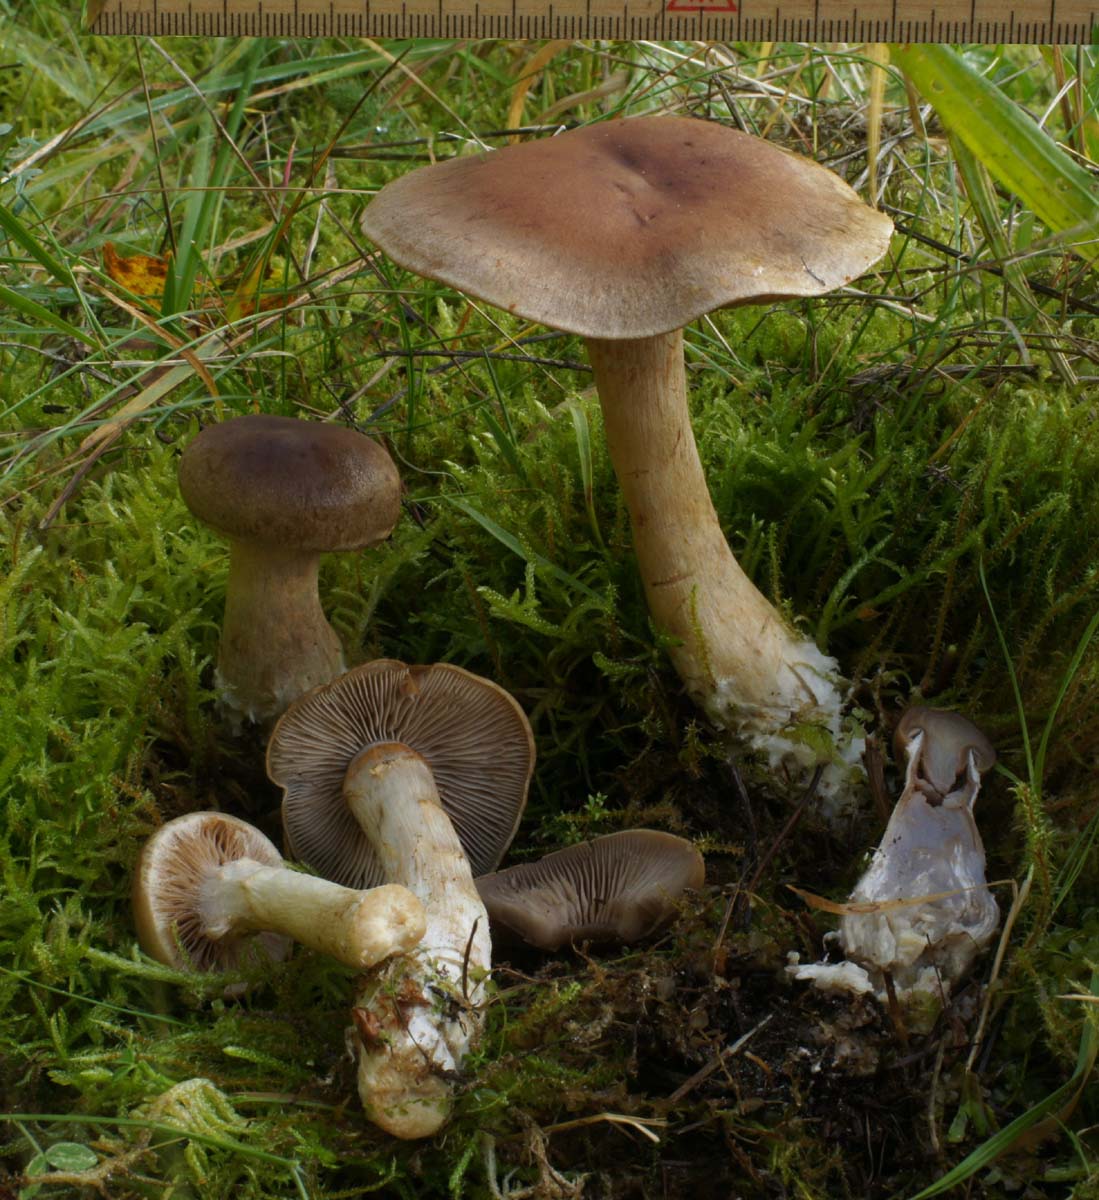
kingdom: Fungi
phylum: Basidiomycota
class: Agaricomycetes
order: Agaricales
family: Cortinariaceae
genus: Cortinarius
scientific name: Cortinarius caninus
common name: gran-slørhat
